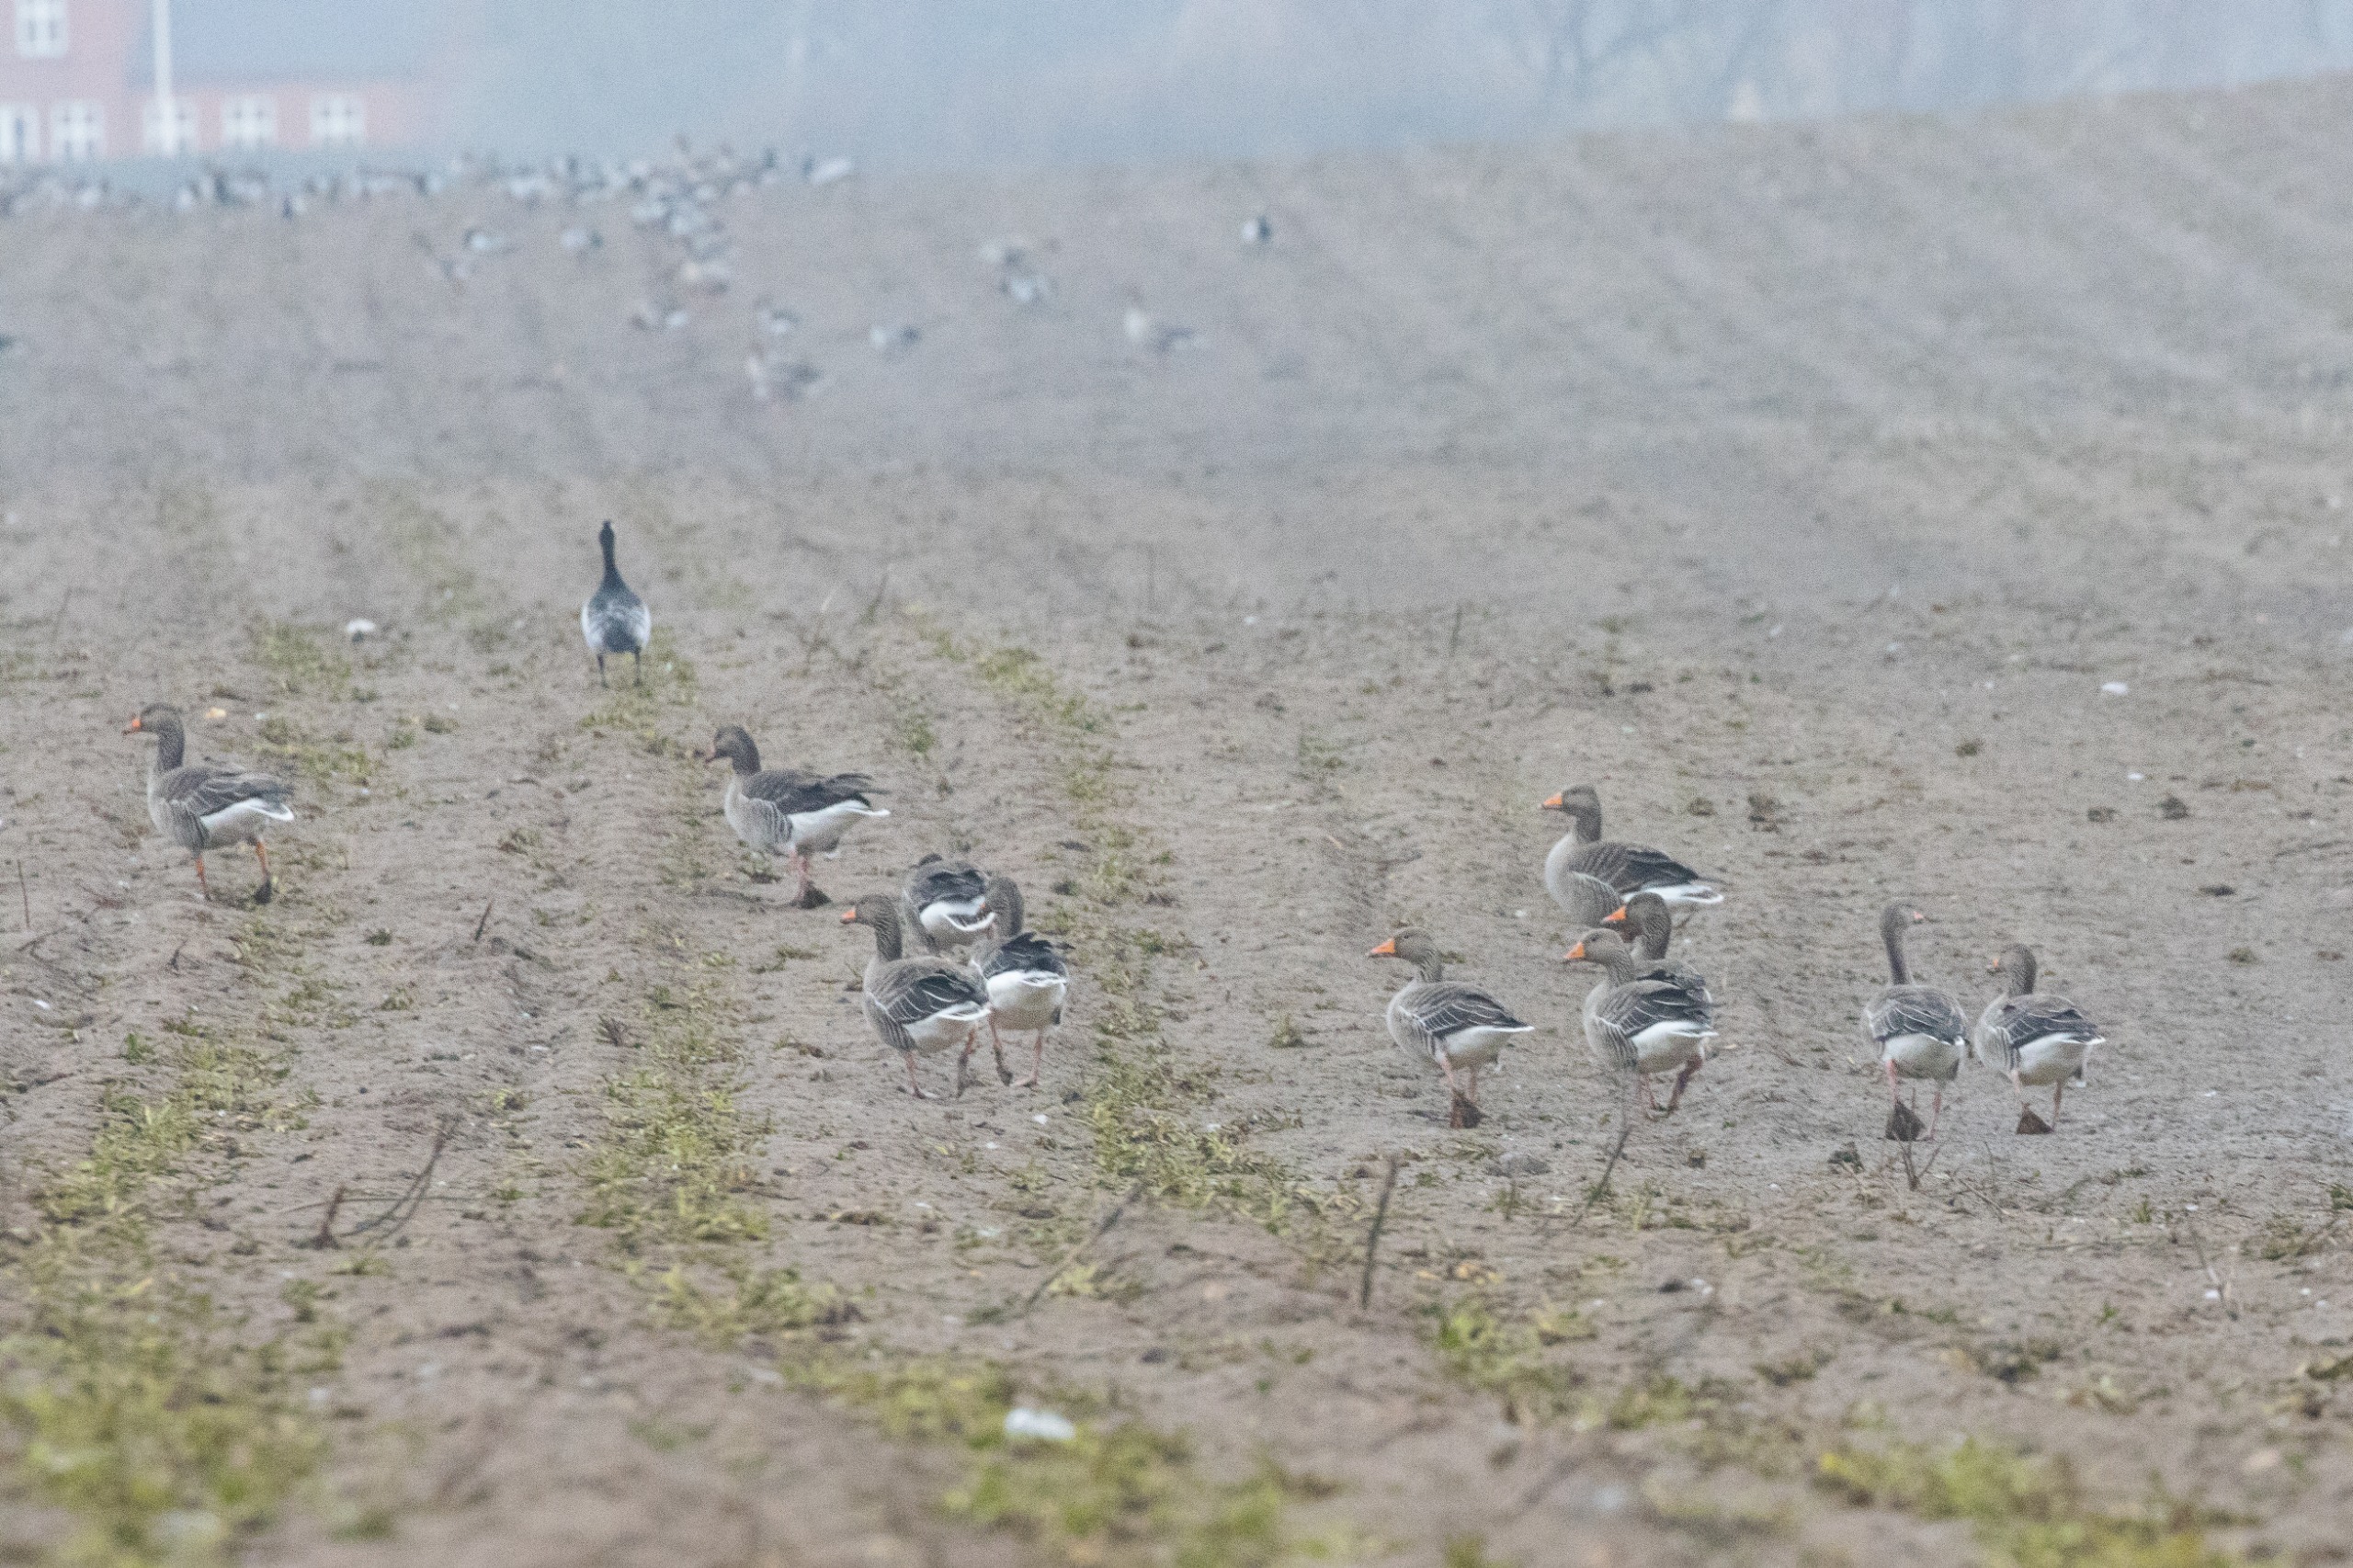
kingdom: Animalia
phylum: Chordata
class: Aves
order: Anseriformes
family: Anatidae
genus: Anser
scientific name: Anser anser
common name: Grågås
